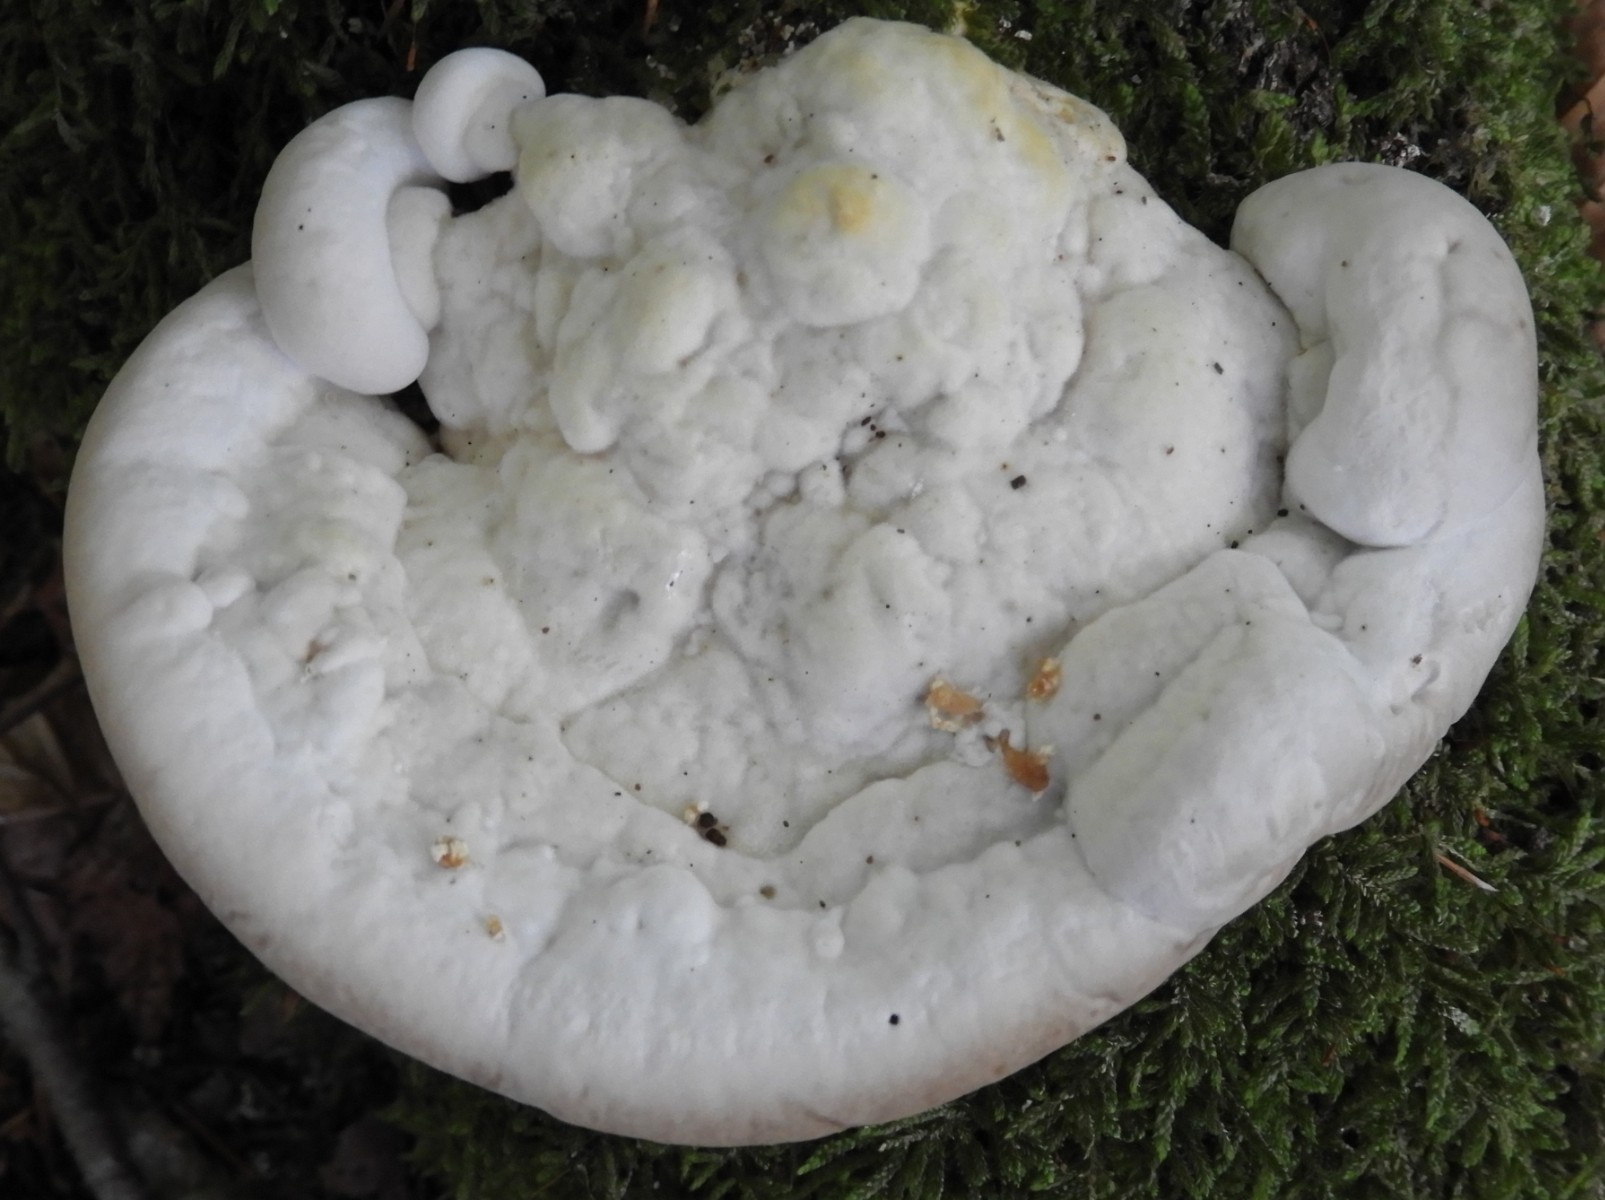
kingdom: Fungi
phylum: Basidiomycota
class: Agaricomycetes
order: Polyporales
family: Polyporaceae
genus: Trametes
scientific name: Trametes gibbosa
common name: puklet læderporesvamp
